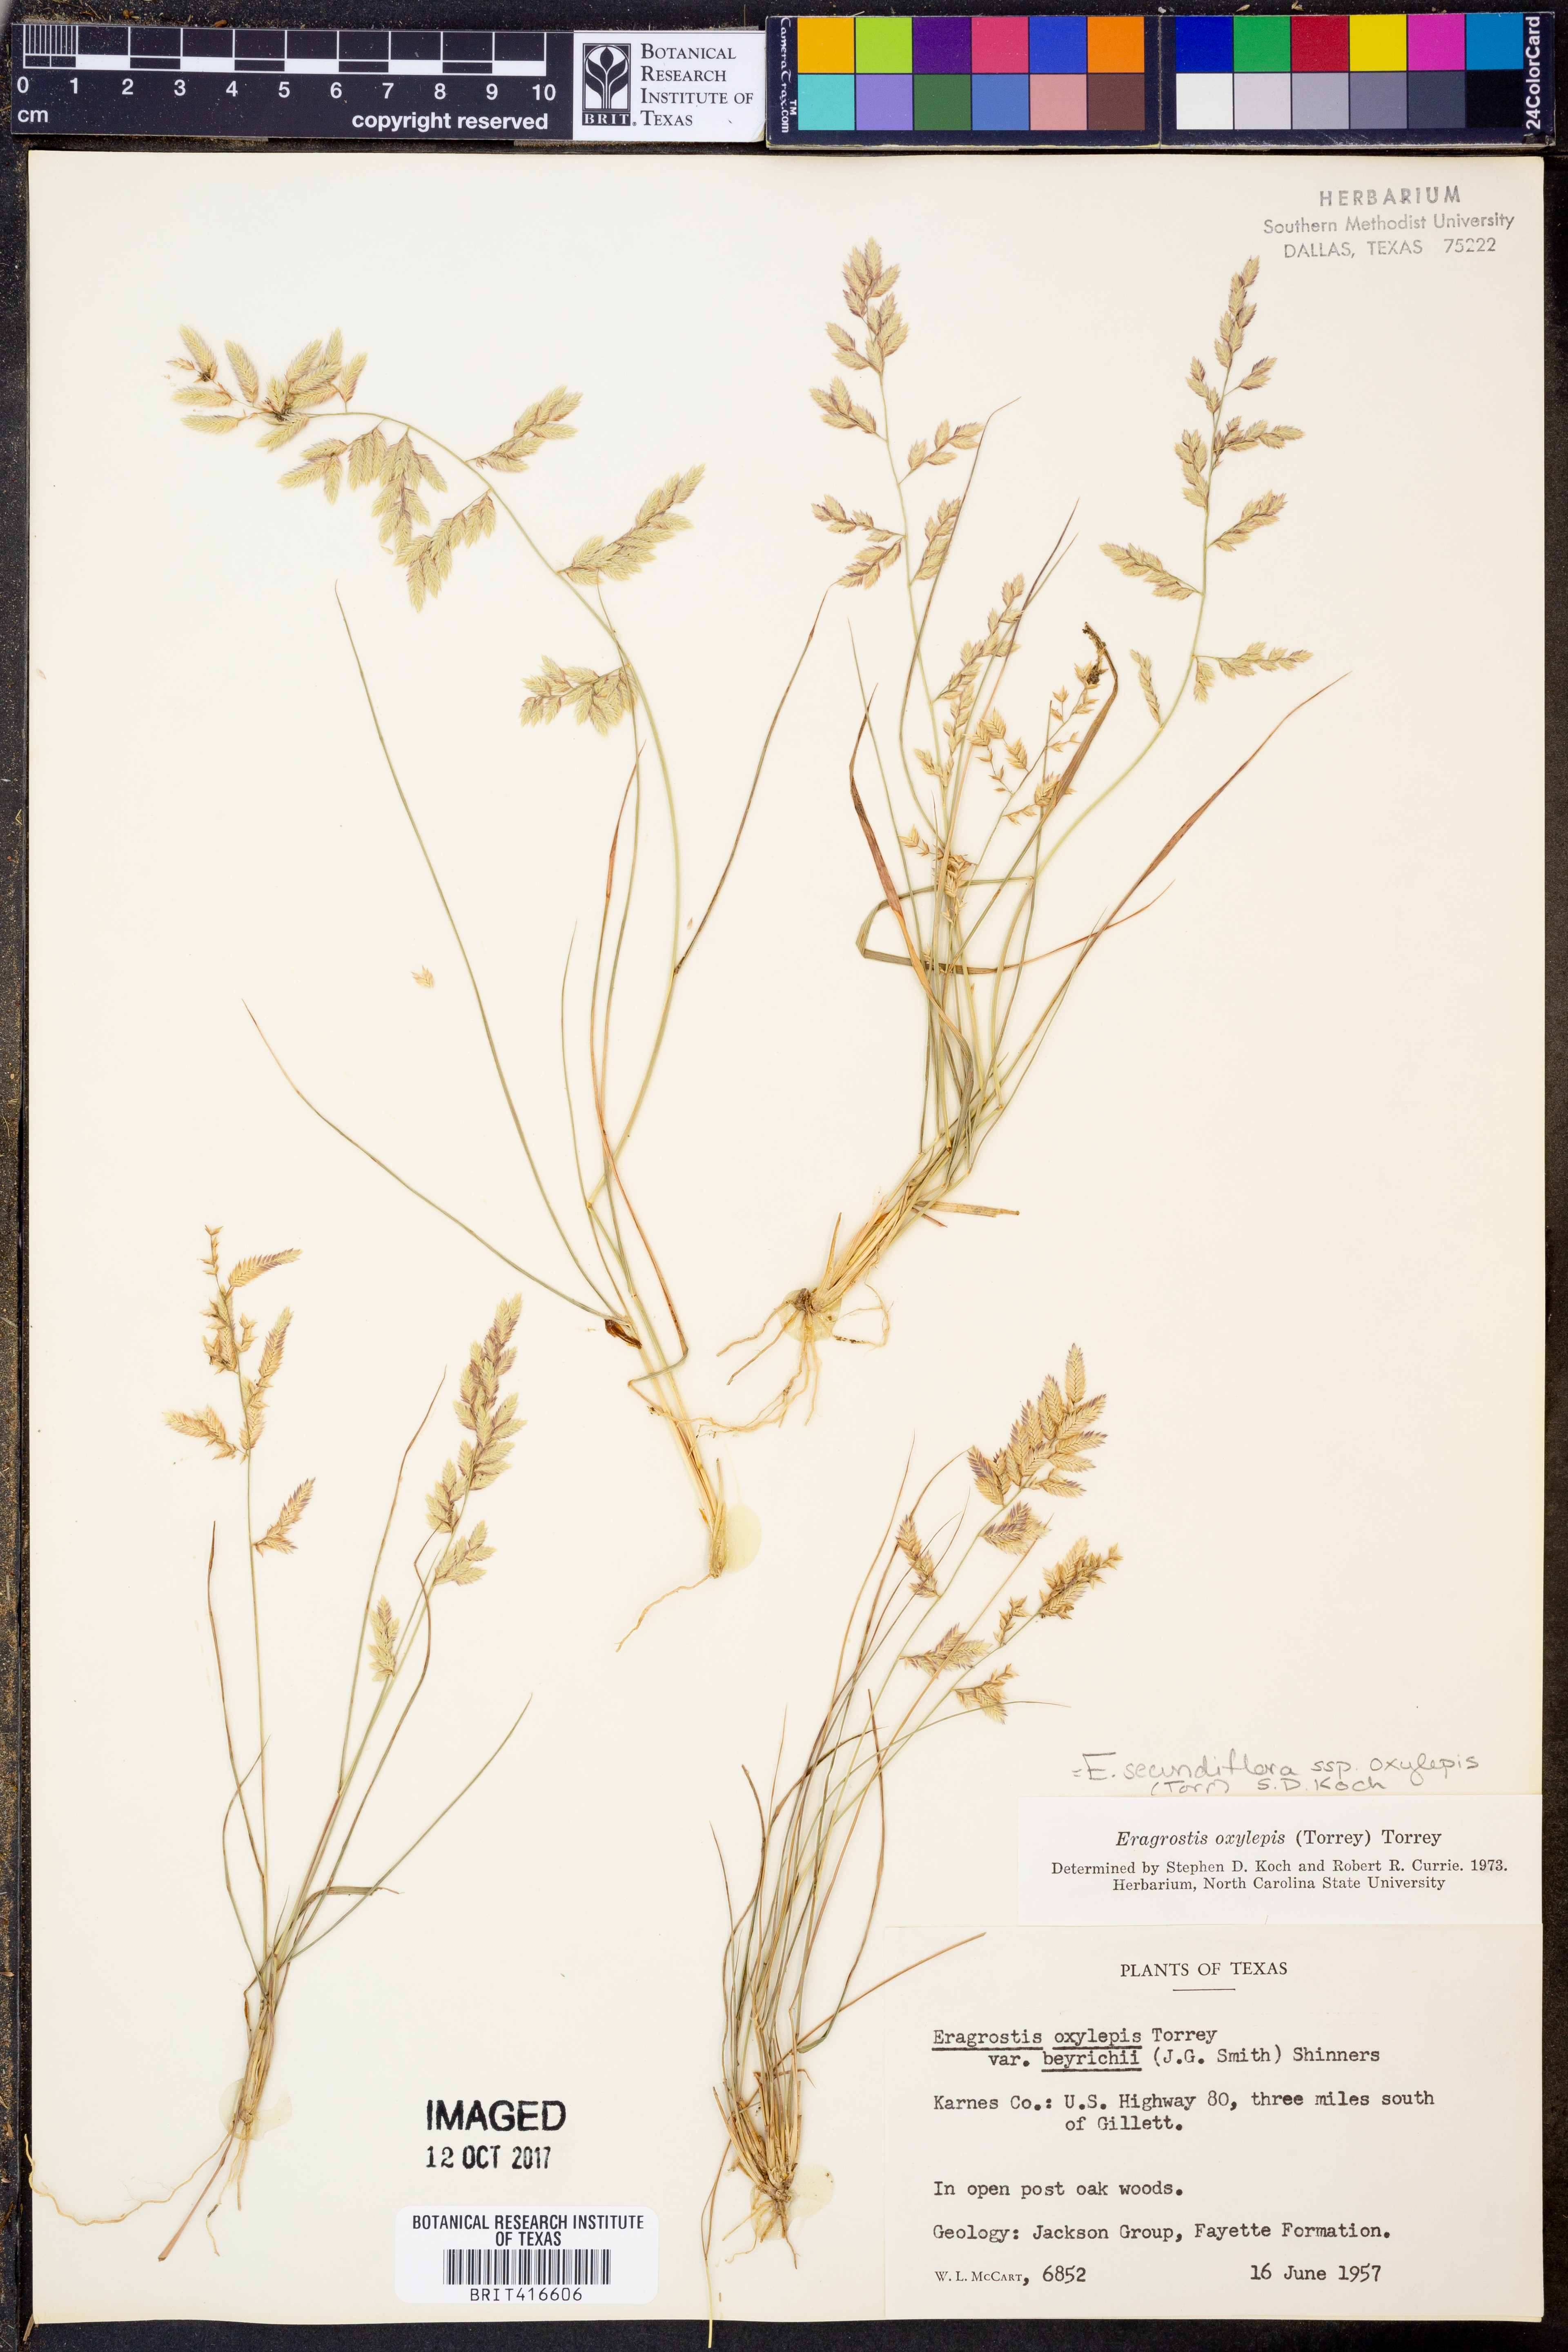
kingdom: Plantae
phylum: Tracheophyta
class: Liliopsida
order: Poales
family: Poaceae
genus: Eragrostis
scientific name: Eragrostis secundiflora
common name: Red love grass
